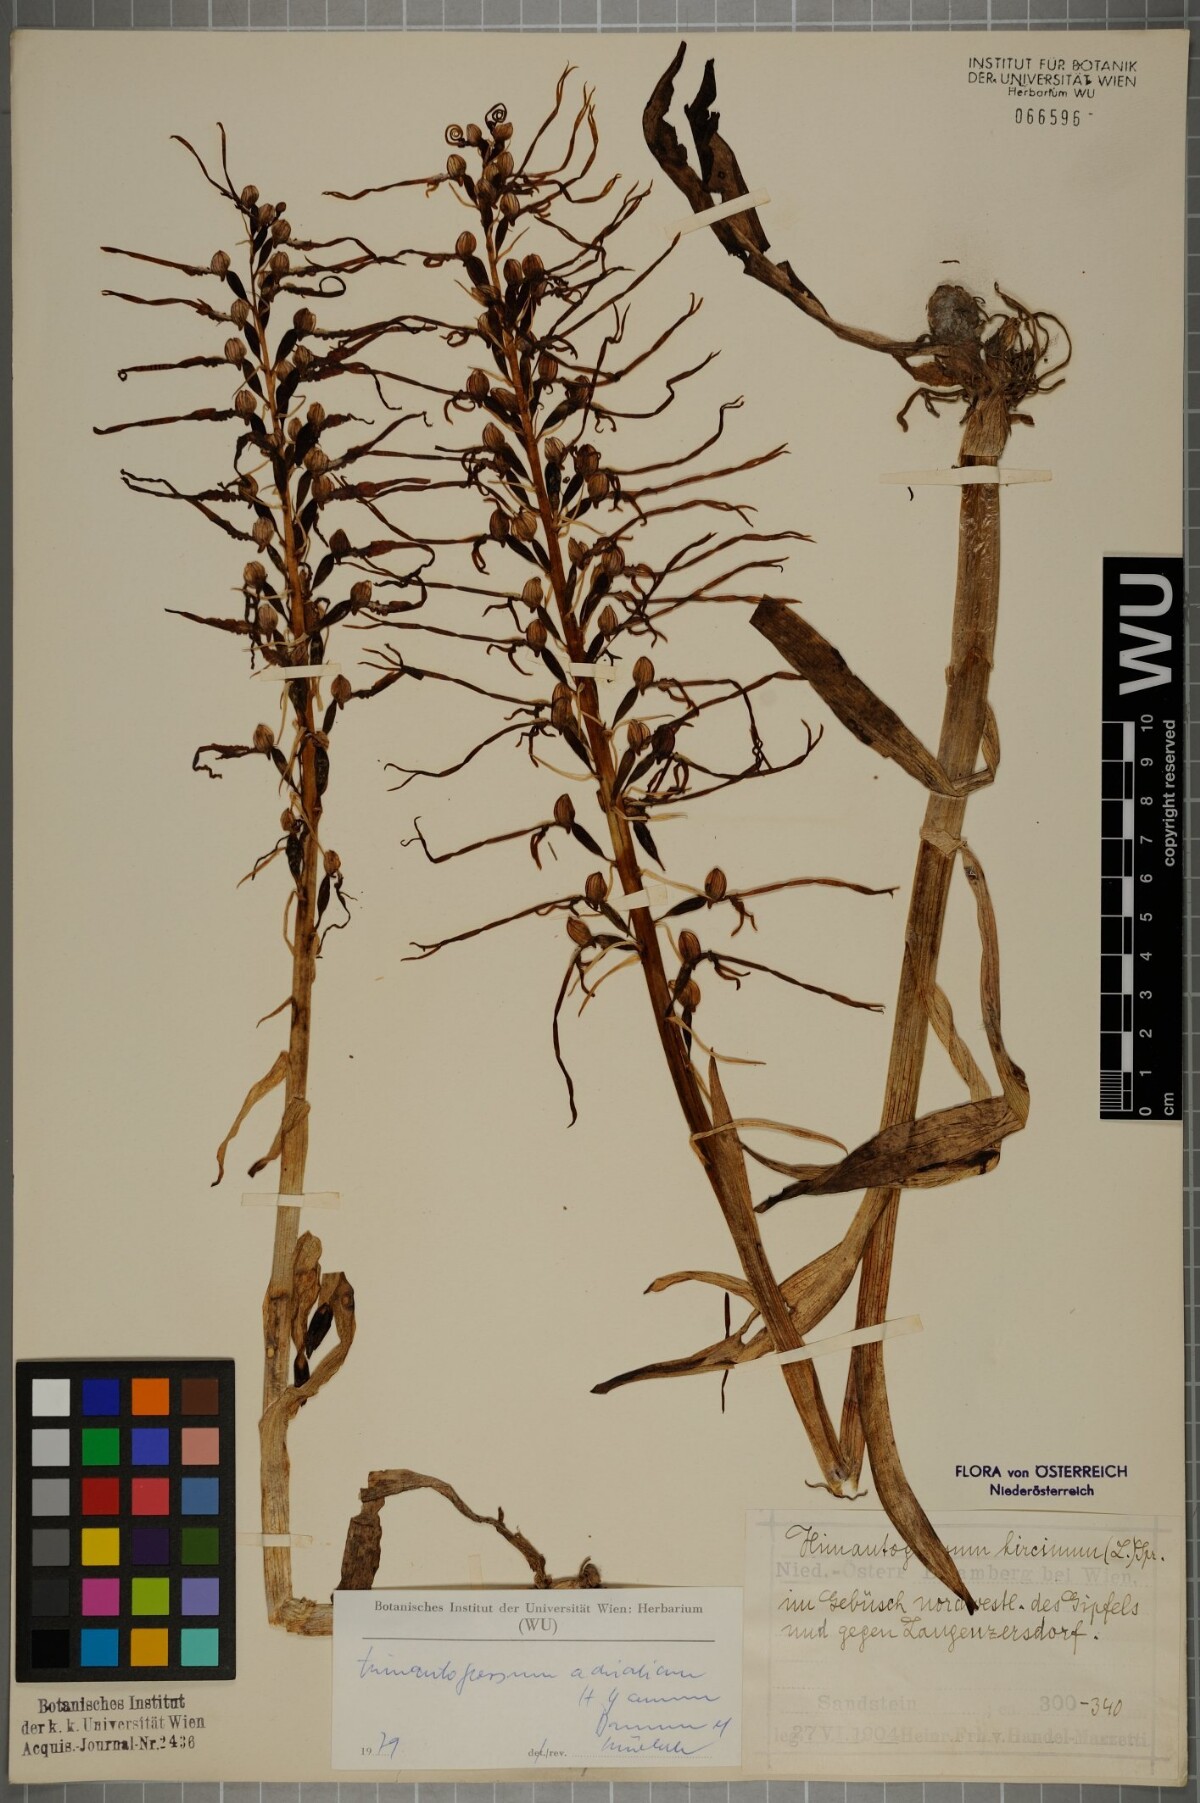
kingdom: Plantae
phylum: Tracheophyta
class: Liliopsida
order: Asparagales
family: Orchidaceae
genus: Himantoglossum
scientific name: Himantoglossum adriaticum
